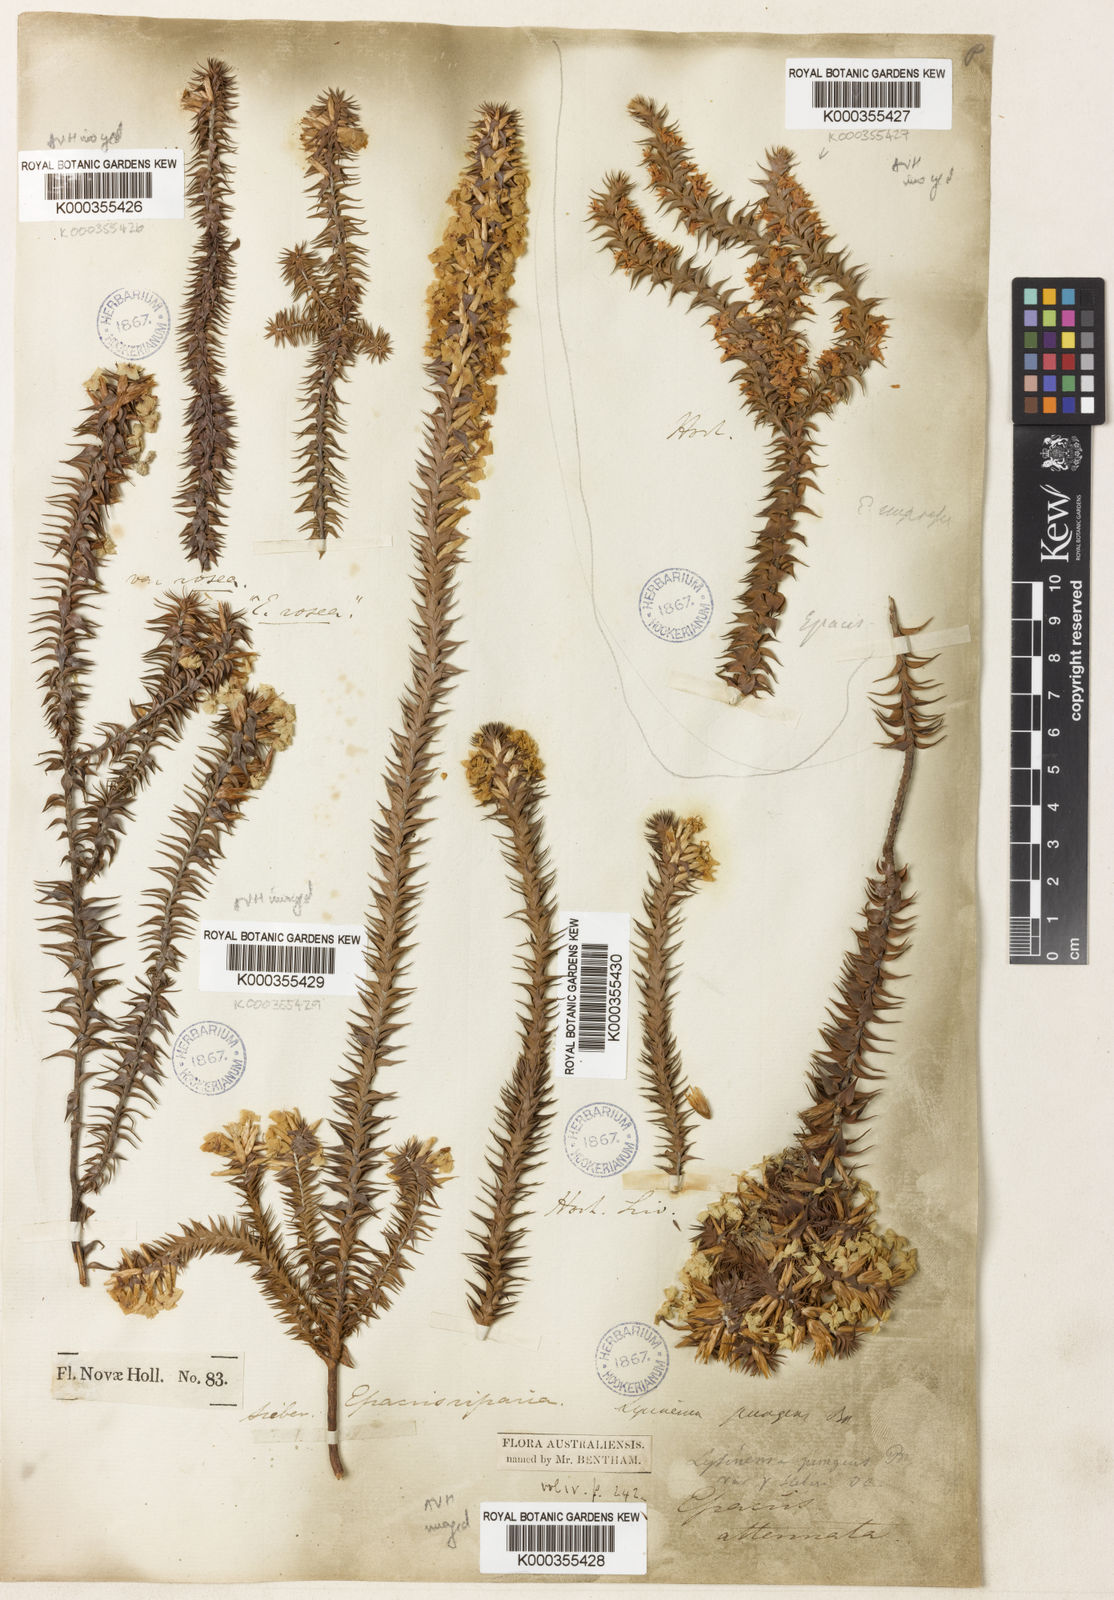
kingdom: Plantae
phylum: Tracheophyta
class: Magnoliopsida
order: Ericales
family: Ericaceae
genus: Woollsia
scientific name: Woollsia pungens
